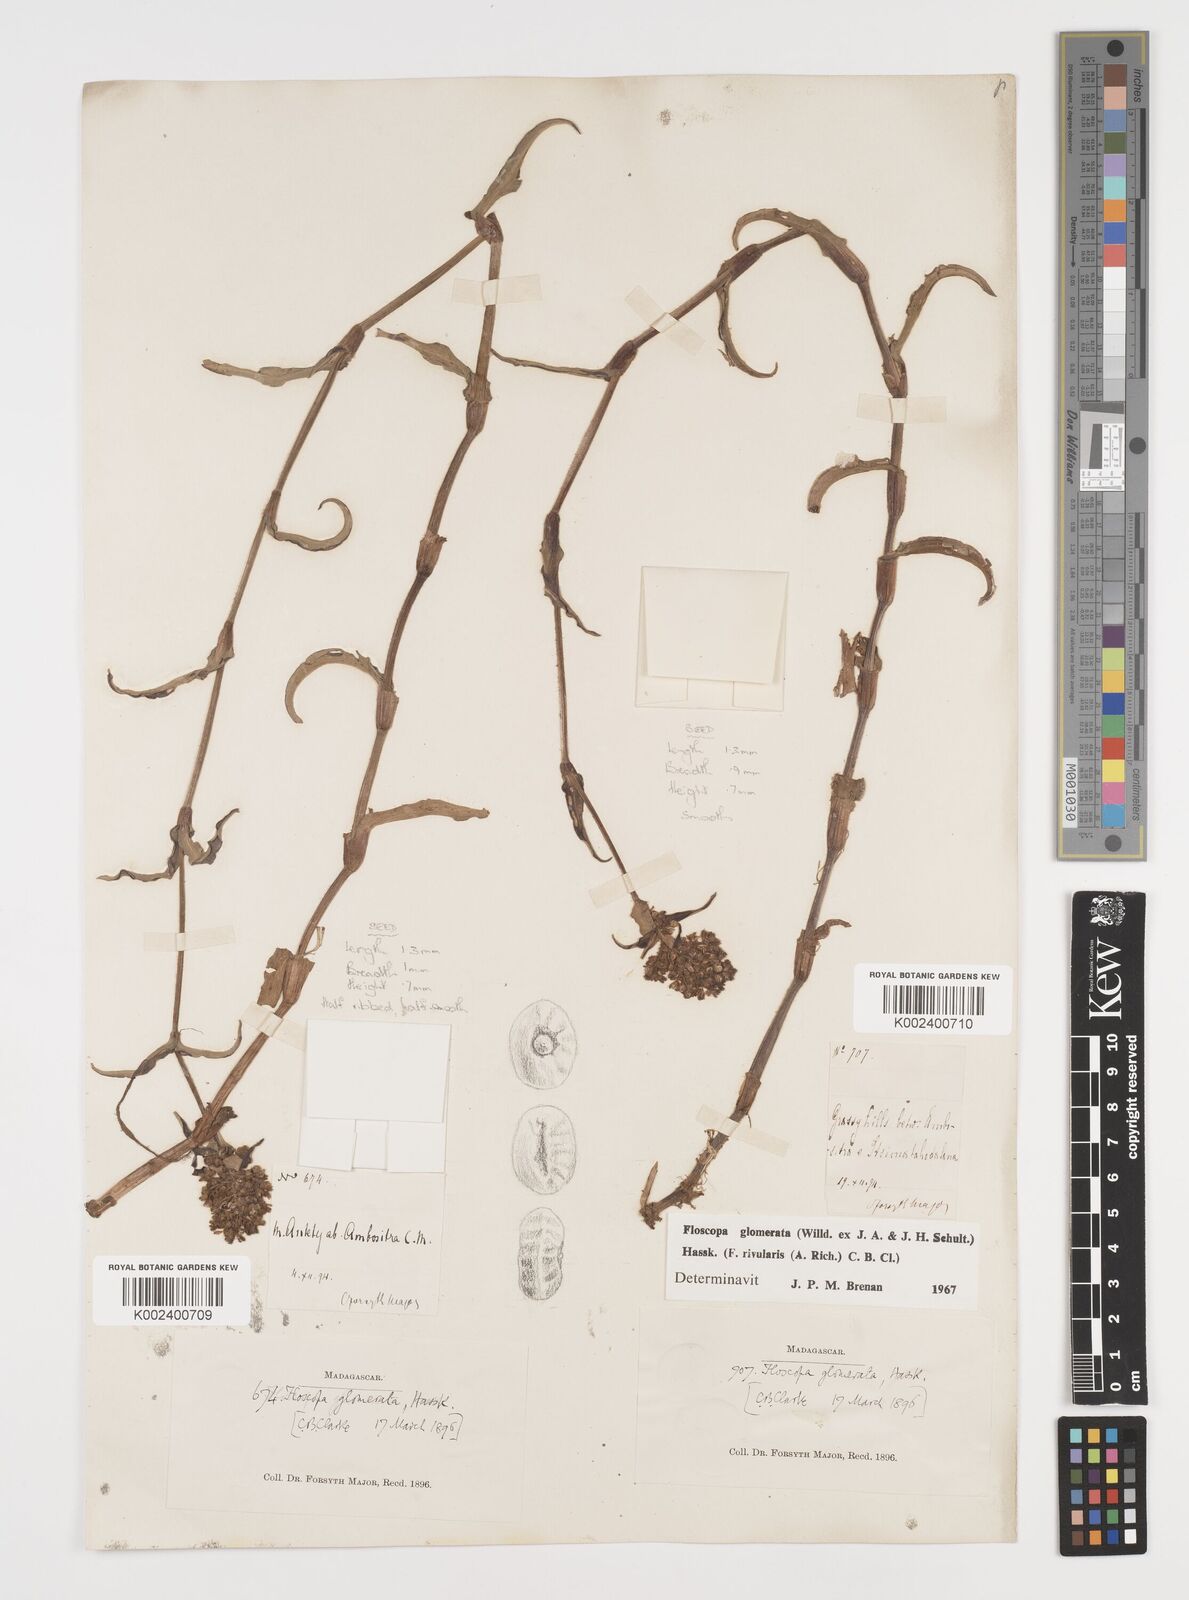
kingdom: Plantae
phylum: Tracheophyta
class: Liliopsida
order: Commelinales
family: Commelinaceae
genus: Floscopa
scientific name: Floscopa glomerata
